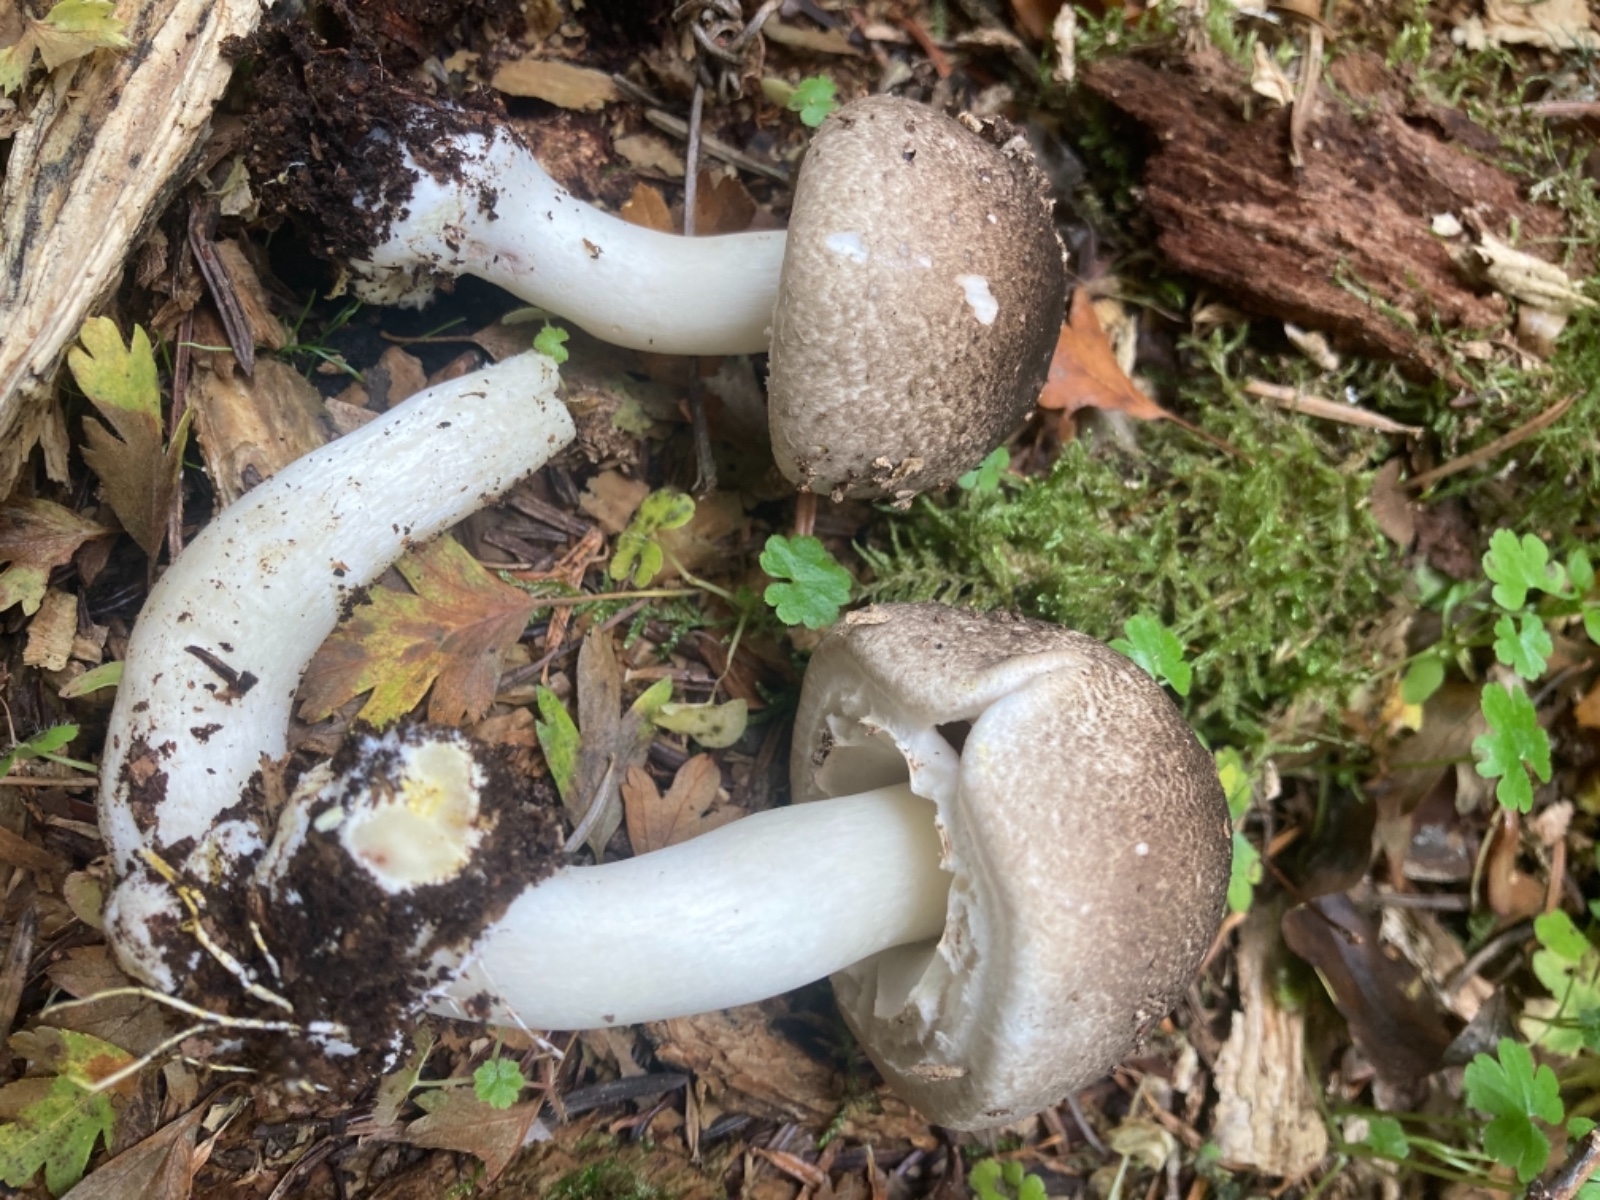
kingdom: Fungi
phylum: Basidiomycota
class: Agaricomycetes
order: Agaricales
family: Agaricaceae
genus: Agaricus
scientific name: Agaricus moelleri
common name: perlehøne-champignon
